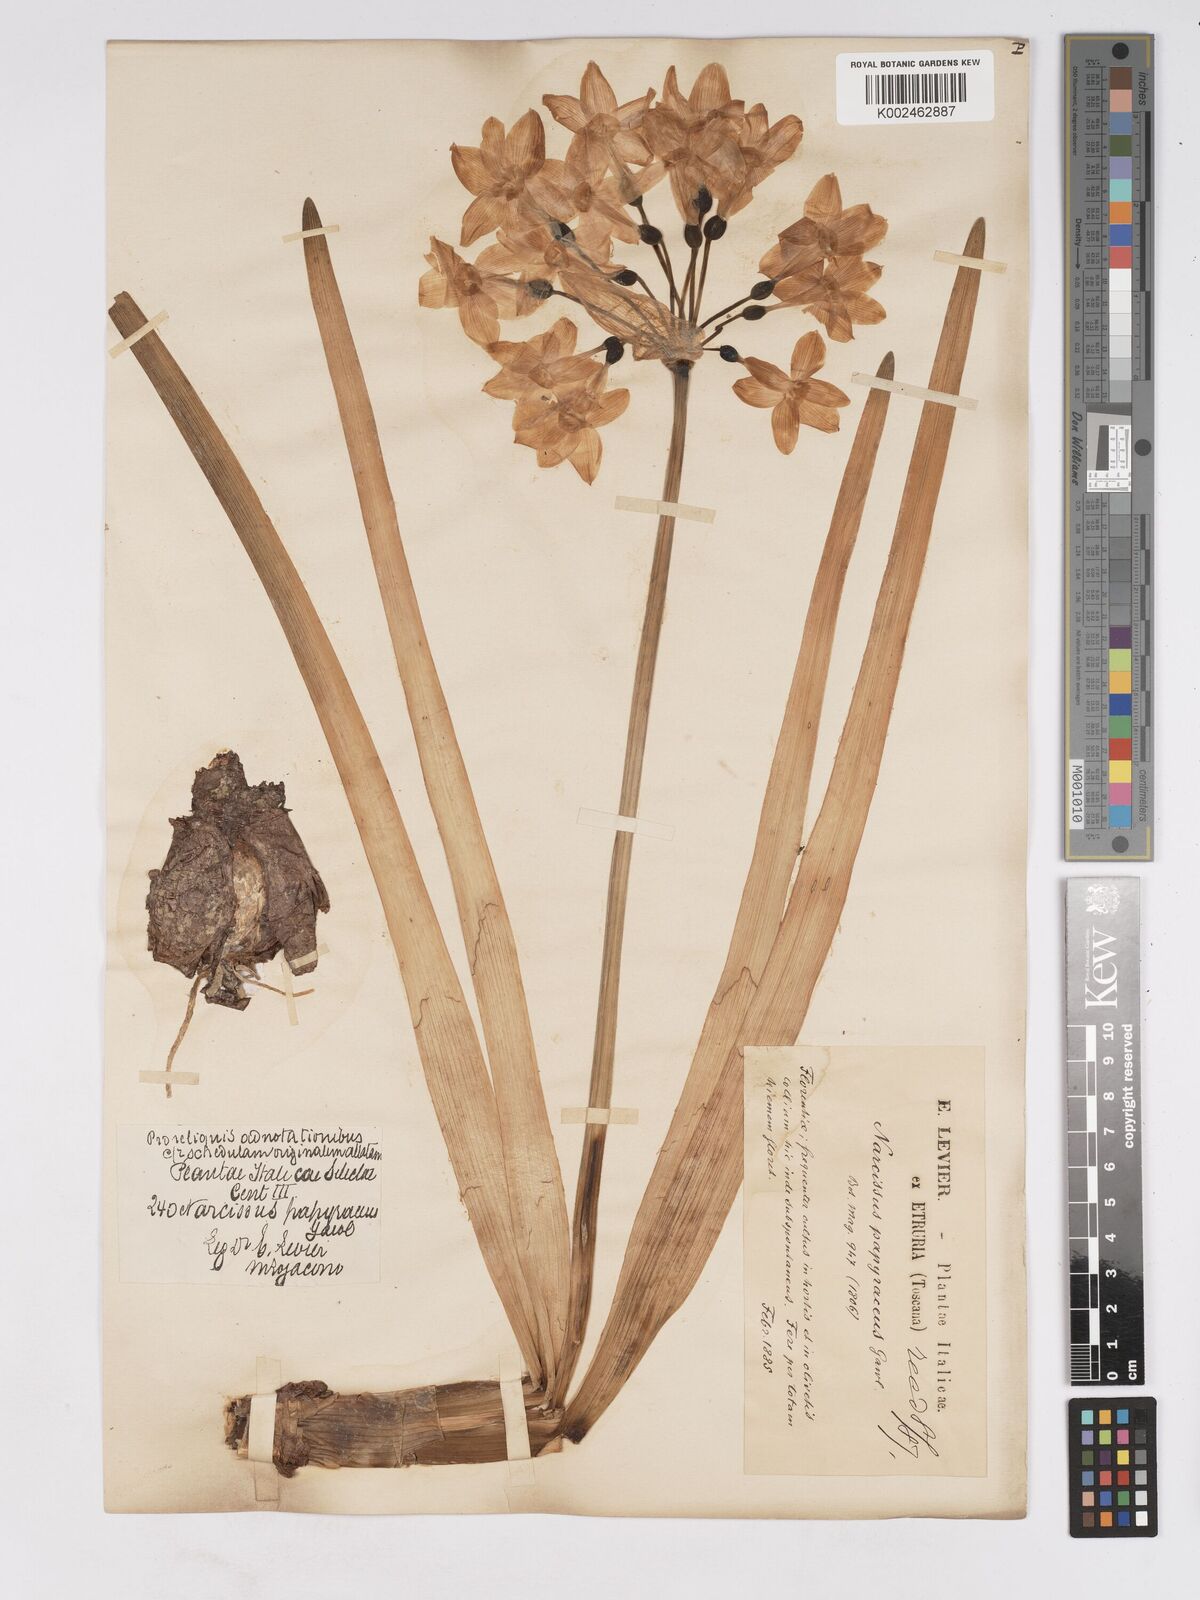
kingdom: Plantae
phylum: Tracheophyta
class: Liliopsida
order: Asparagales
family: Amaryllidaceae
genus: Narcissus
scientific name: Narcissus
